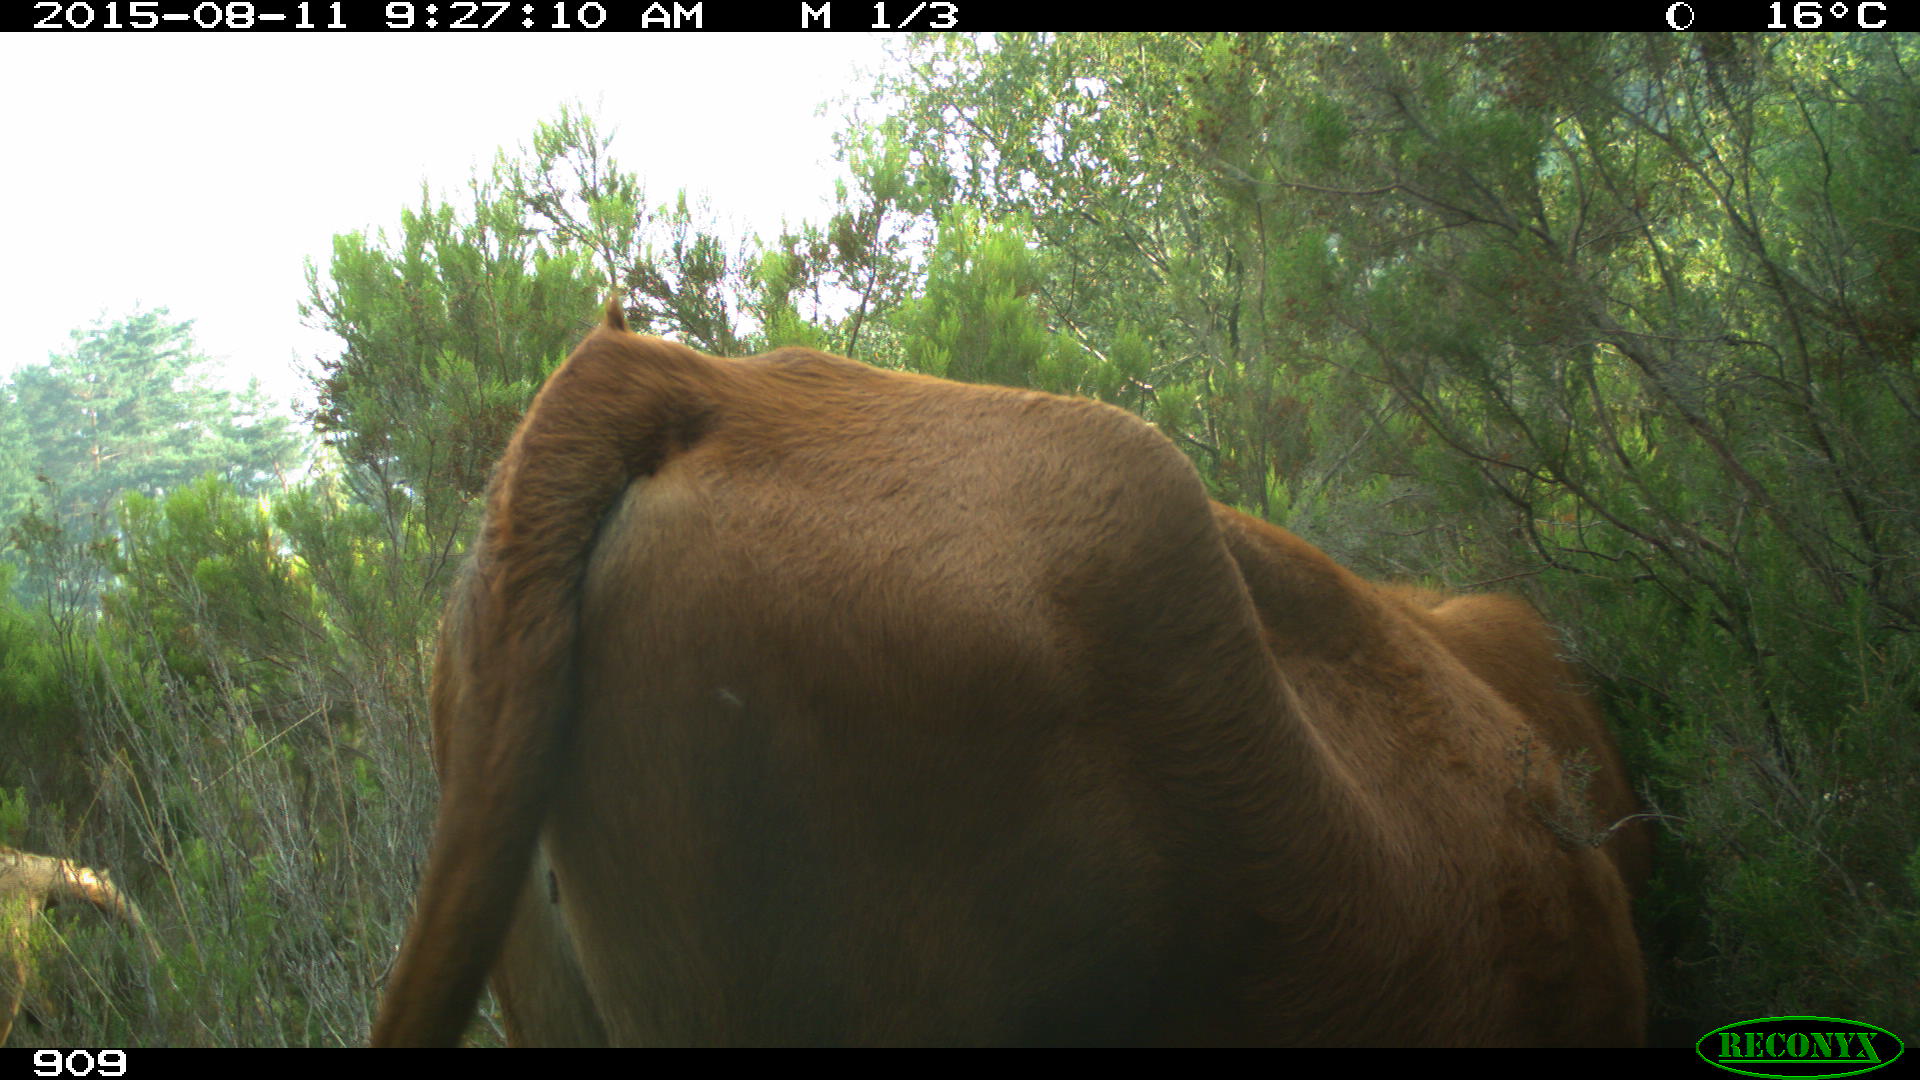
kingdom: Animalia
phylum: Chordata
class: Mammalia
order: Artiodactyla
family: Bovidae
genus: Bos
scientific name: Bos taurus
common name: Domesticated cattle
